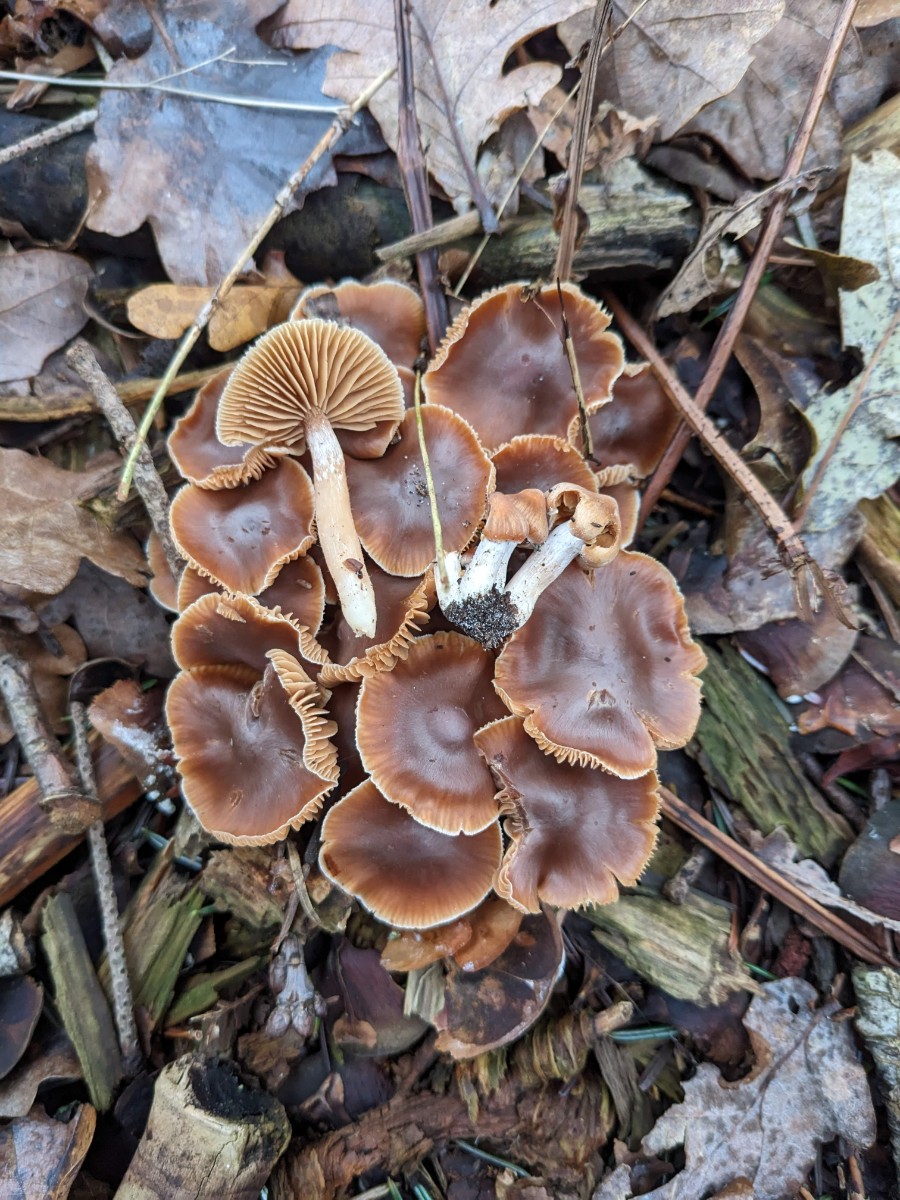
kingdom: Fungi
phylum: Basidiomycota
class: Agaricomycetes
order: Agaricales
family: Cortinariaceae
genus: Cortinarius
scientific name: Cortinarius
